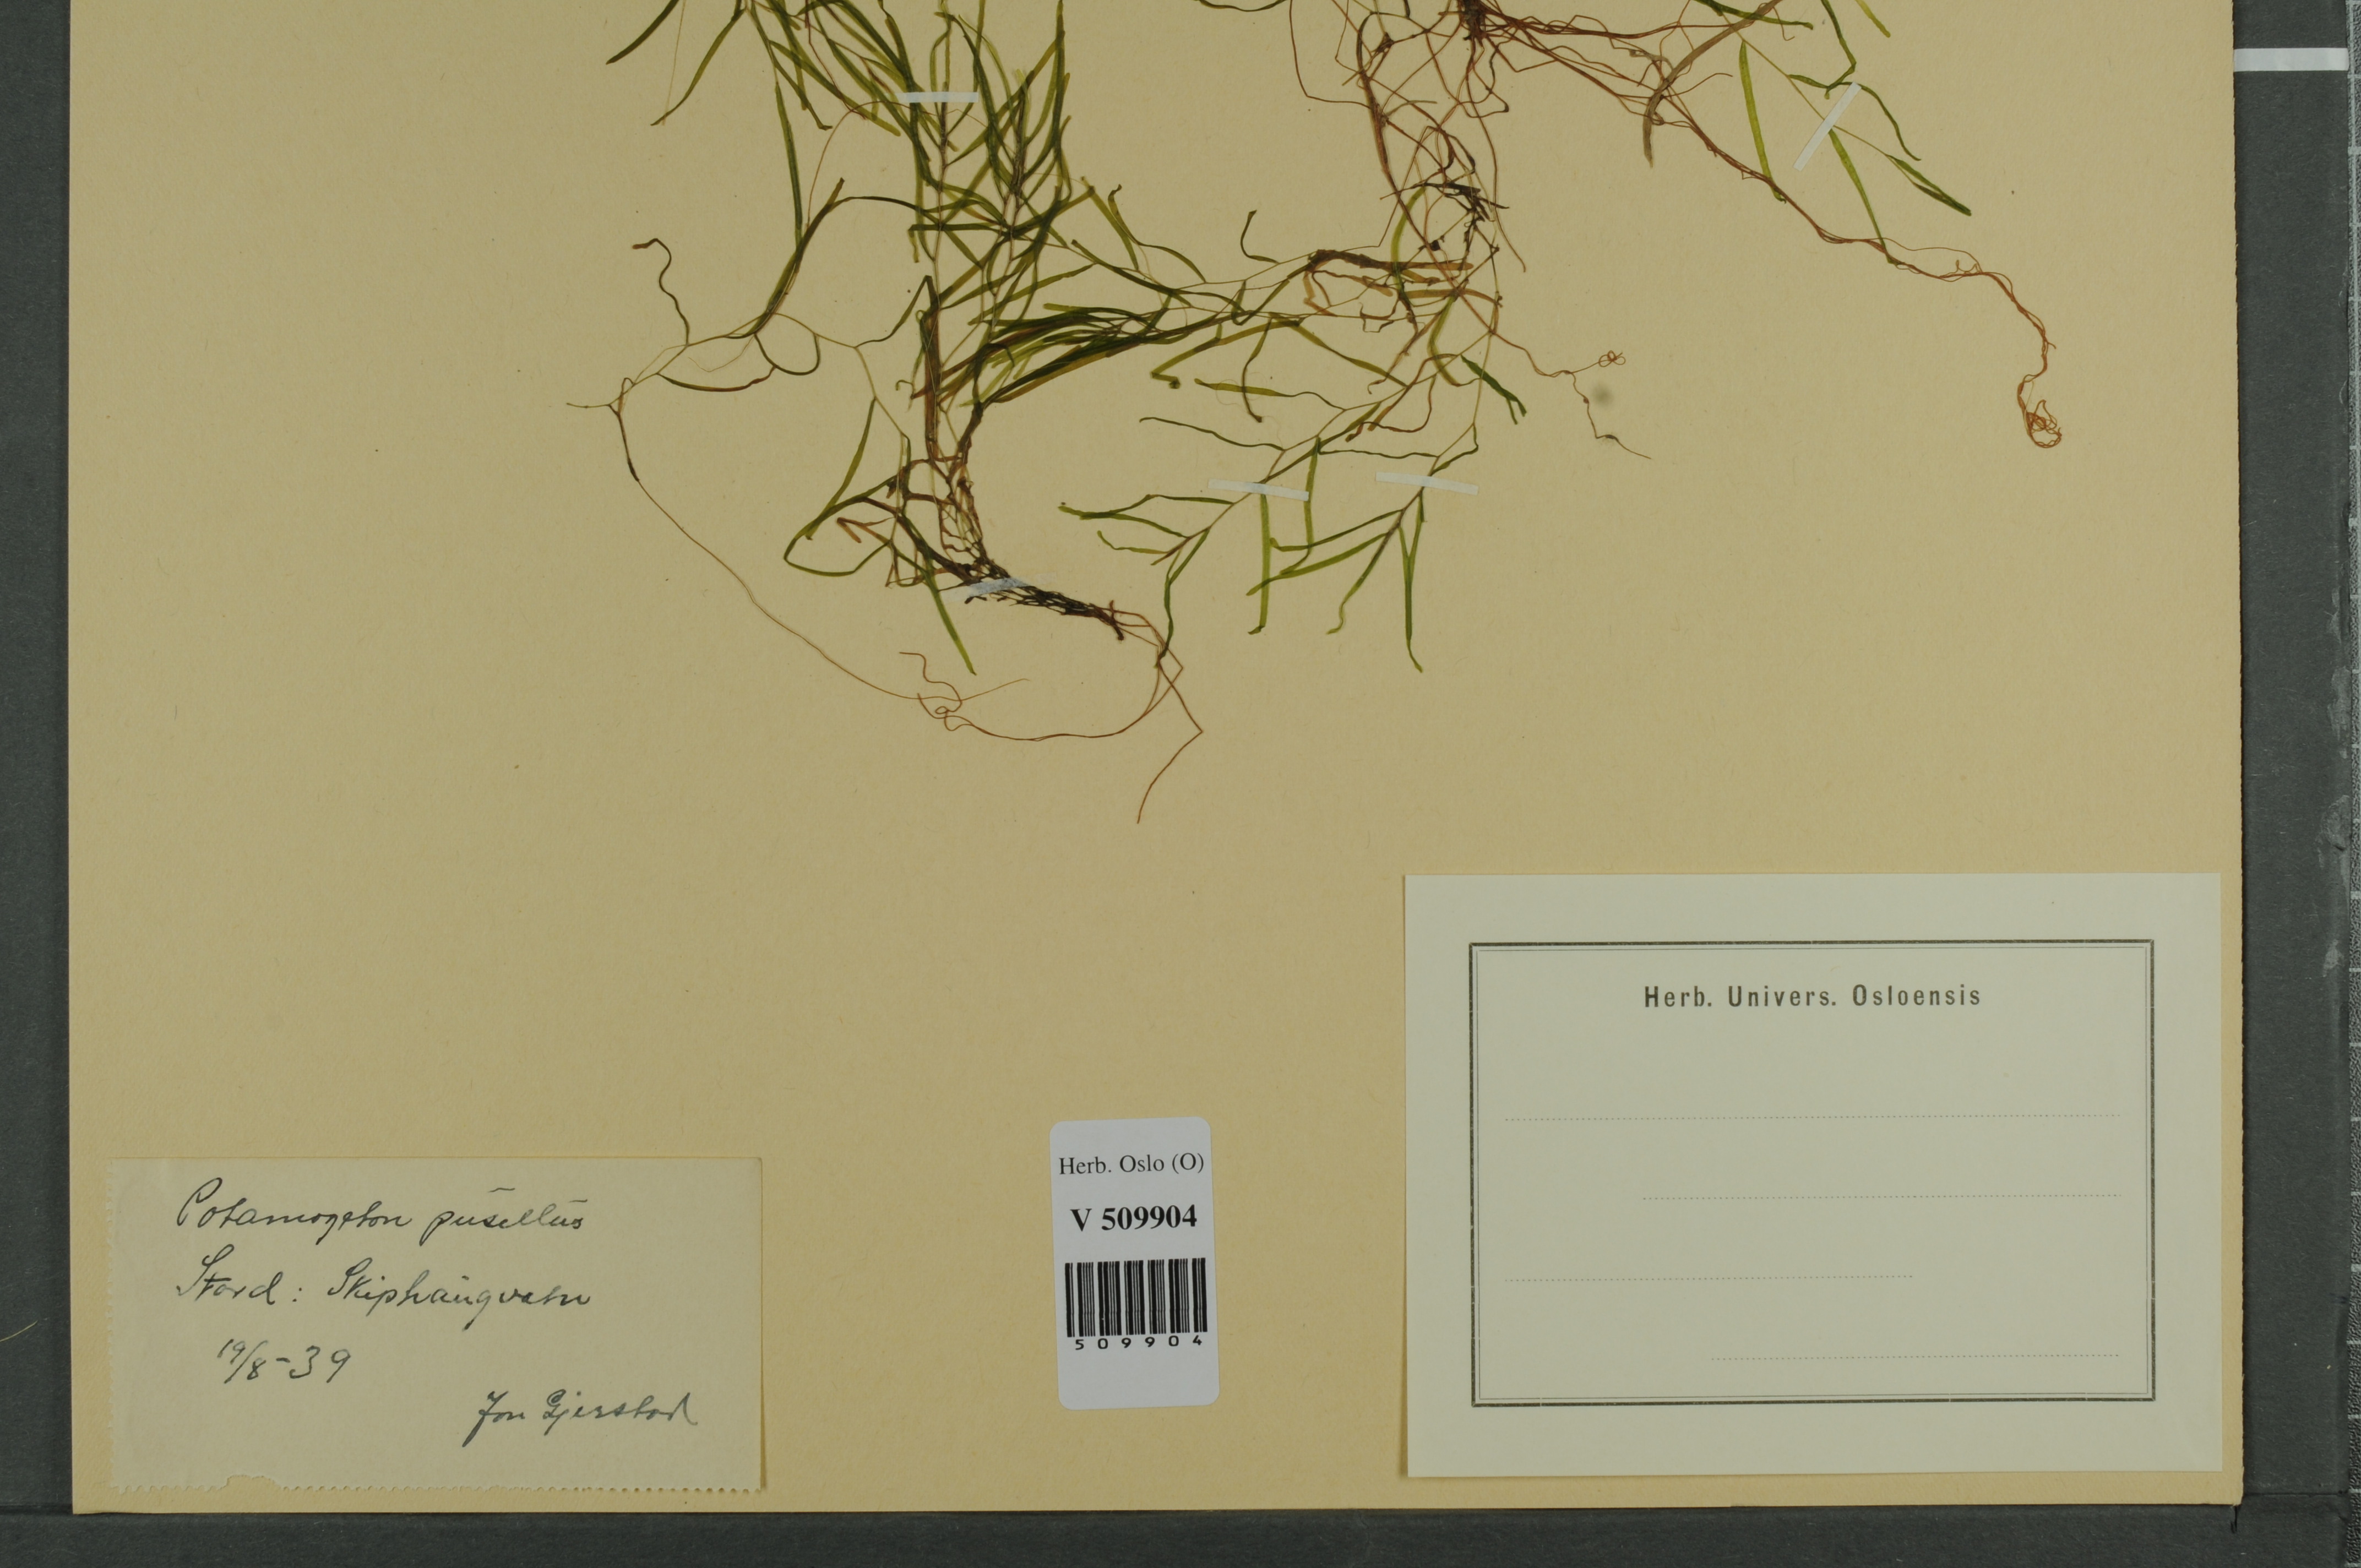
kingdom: Plantae
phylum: Tracheophyta
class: Liliopsida
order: Alismatales
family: Potamogetonaceae
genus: Potamogeton
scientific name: Potamogeton berchtoldii
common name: Small pondweed
